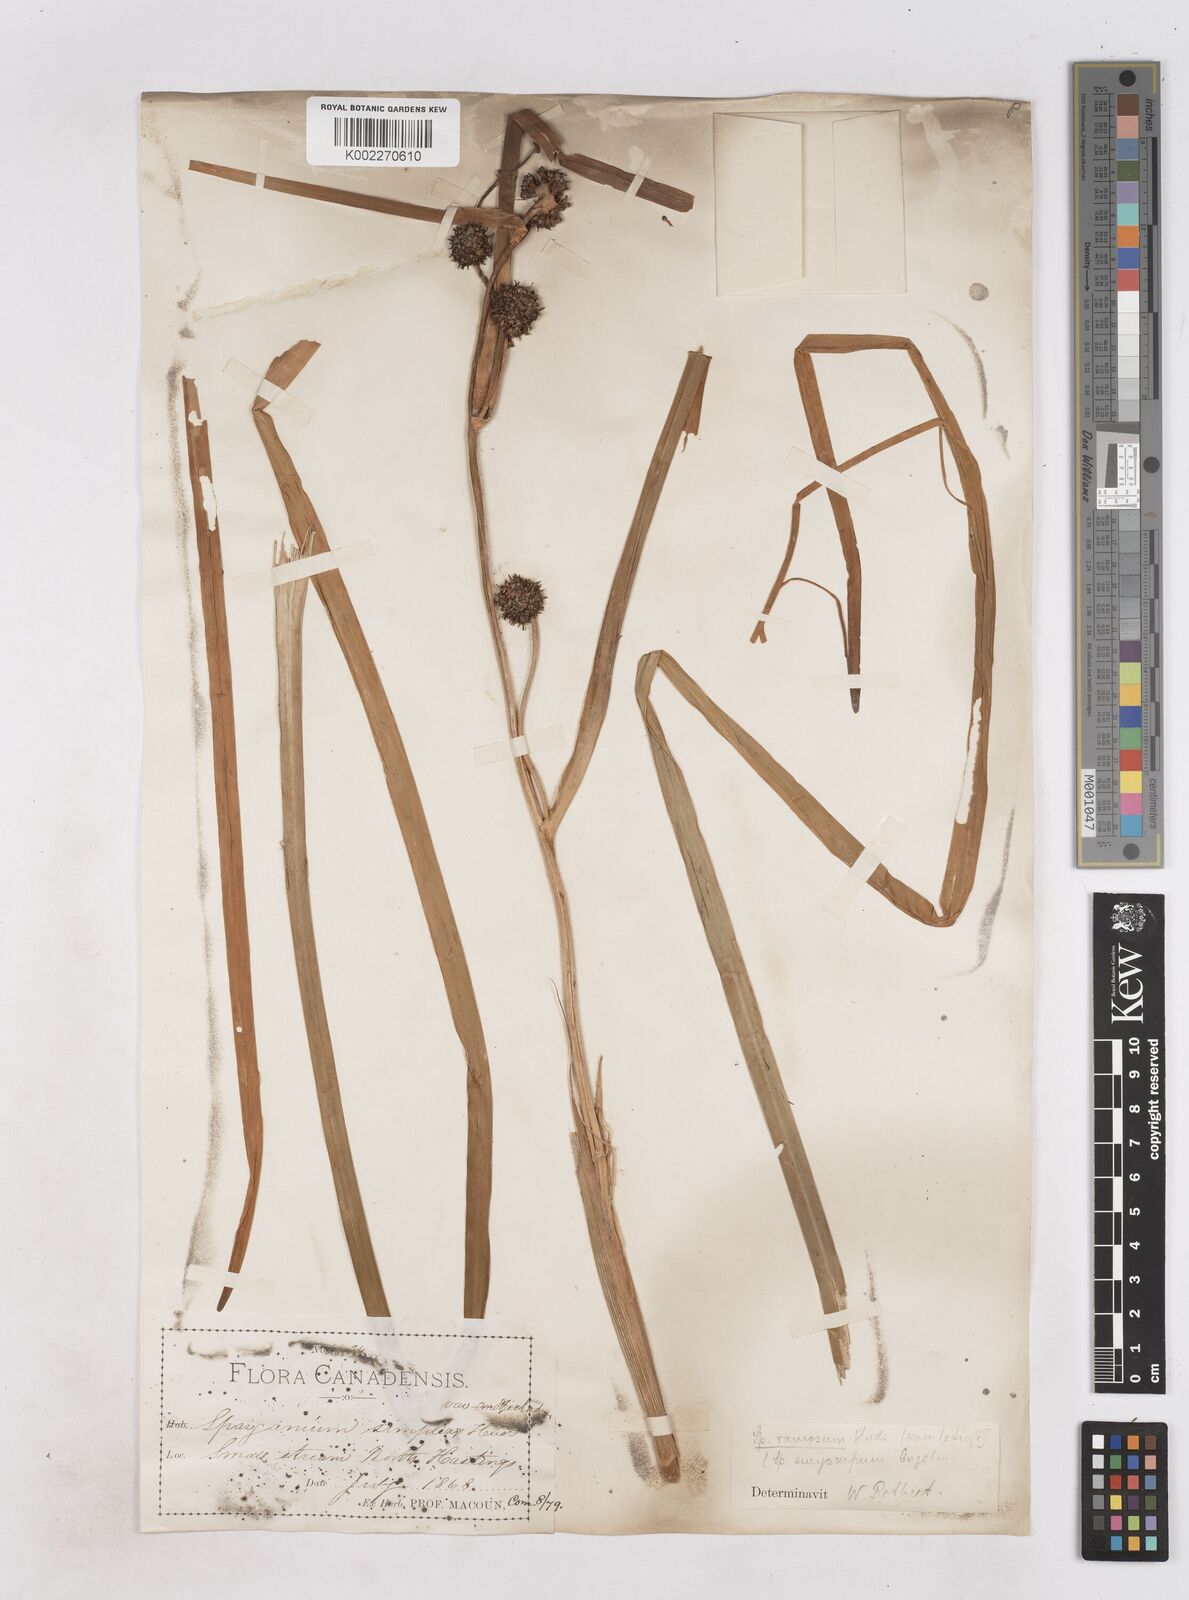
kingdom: Plantae
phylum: Tracheophyta
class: Liliopsida
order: Poales
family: Typhaceae
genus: Sparganium
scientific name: Sparganium eurycarpum
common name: Broad-fruited burreed
